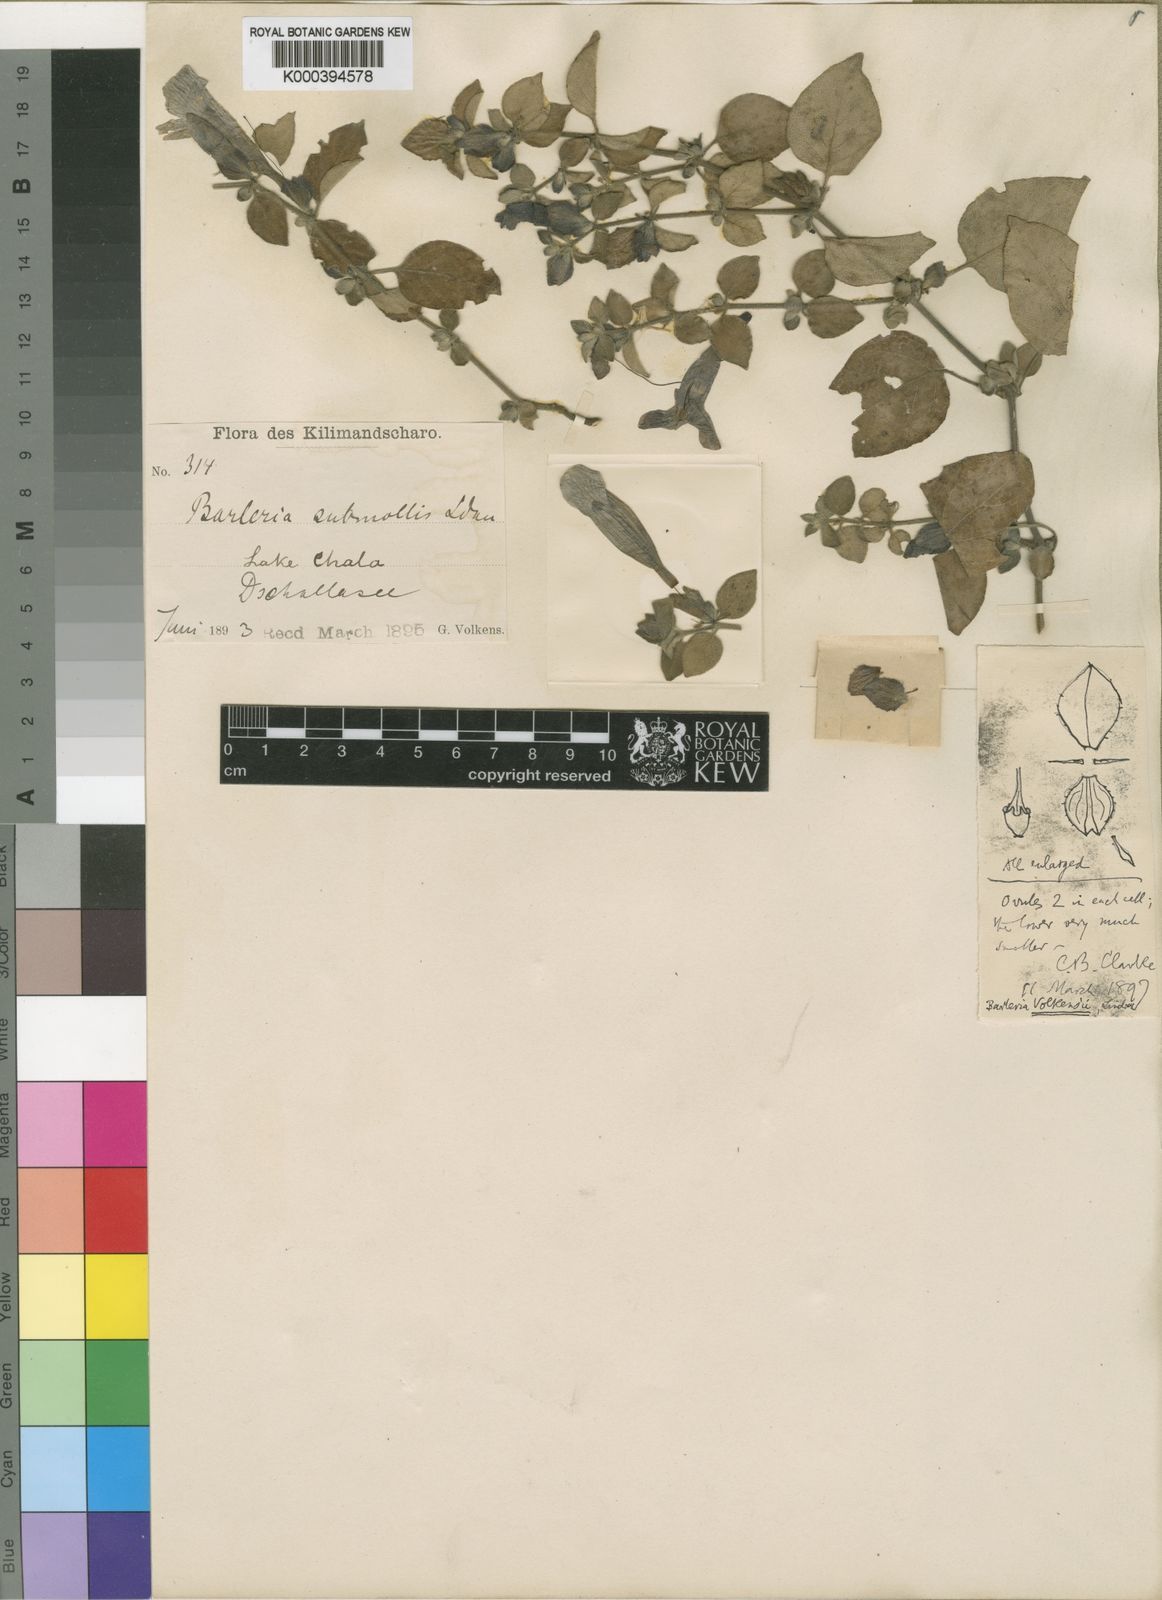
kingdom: Plantae
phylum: Tracheophyta
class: Magnoliopsida
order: Lamiales
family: Acanthaceae
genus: Barleria
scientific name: Barleria submollis
